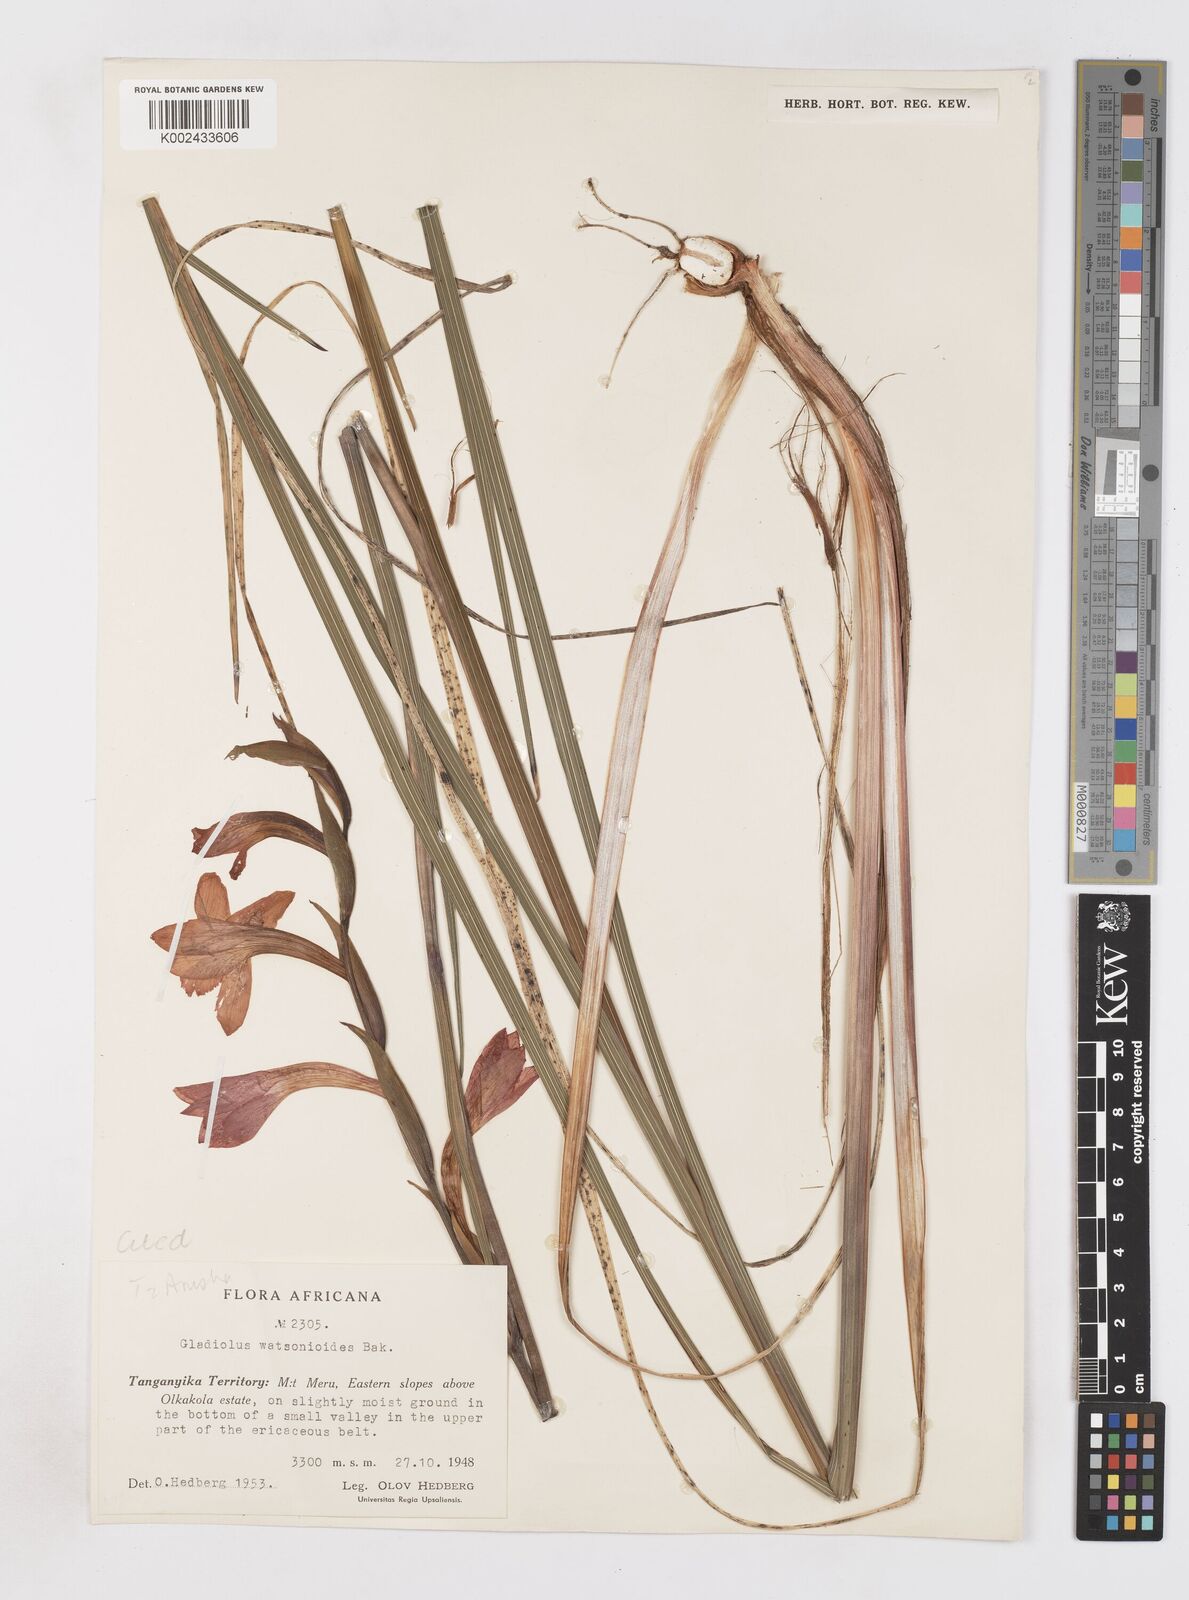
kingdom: Plantae
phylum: Tracheophyta
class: Liliopsida
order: Asparagales
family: Iridaceae
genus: Gladiolus
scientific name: Gladiolus watsonioides
